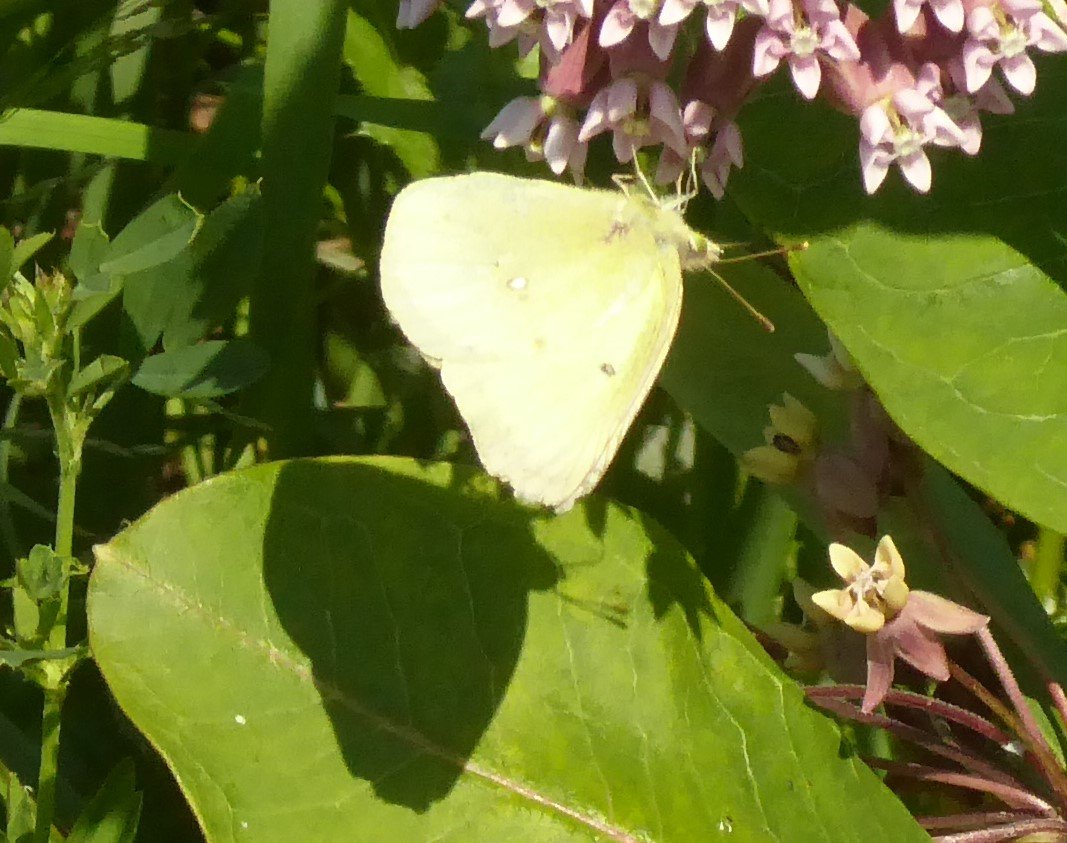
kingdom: Animalia
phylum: Arthropoda
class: Insecta
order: Lepidoptera
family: Pieridae
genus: Colias
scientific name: Colias philodice
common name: Clouded Sulphur
